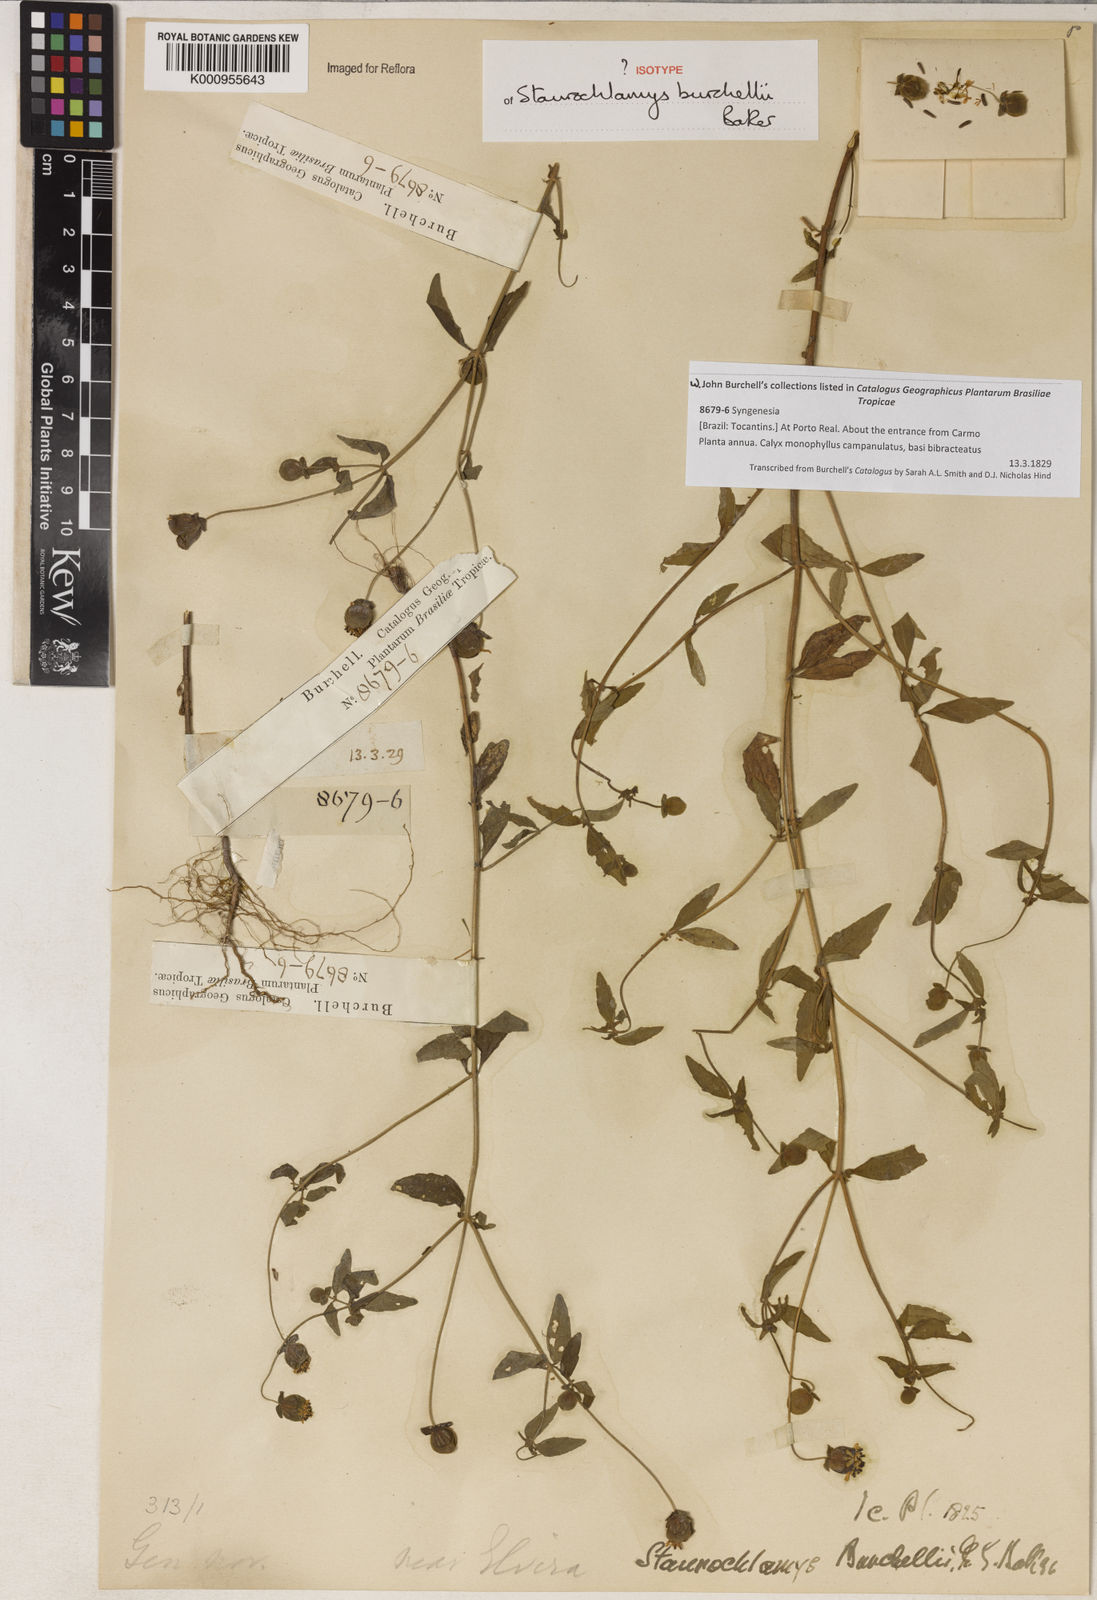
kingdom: Plantae
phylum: Tracheophyta
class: Magnoliopsida
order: Asterales
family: Asteraceae
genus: Staurochlamys
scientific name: Staurochlamys burchellii
